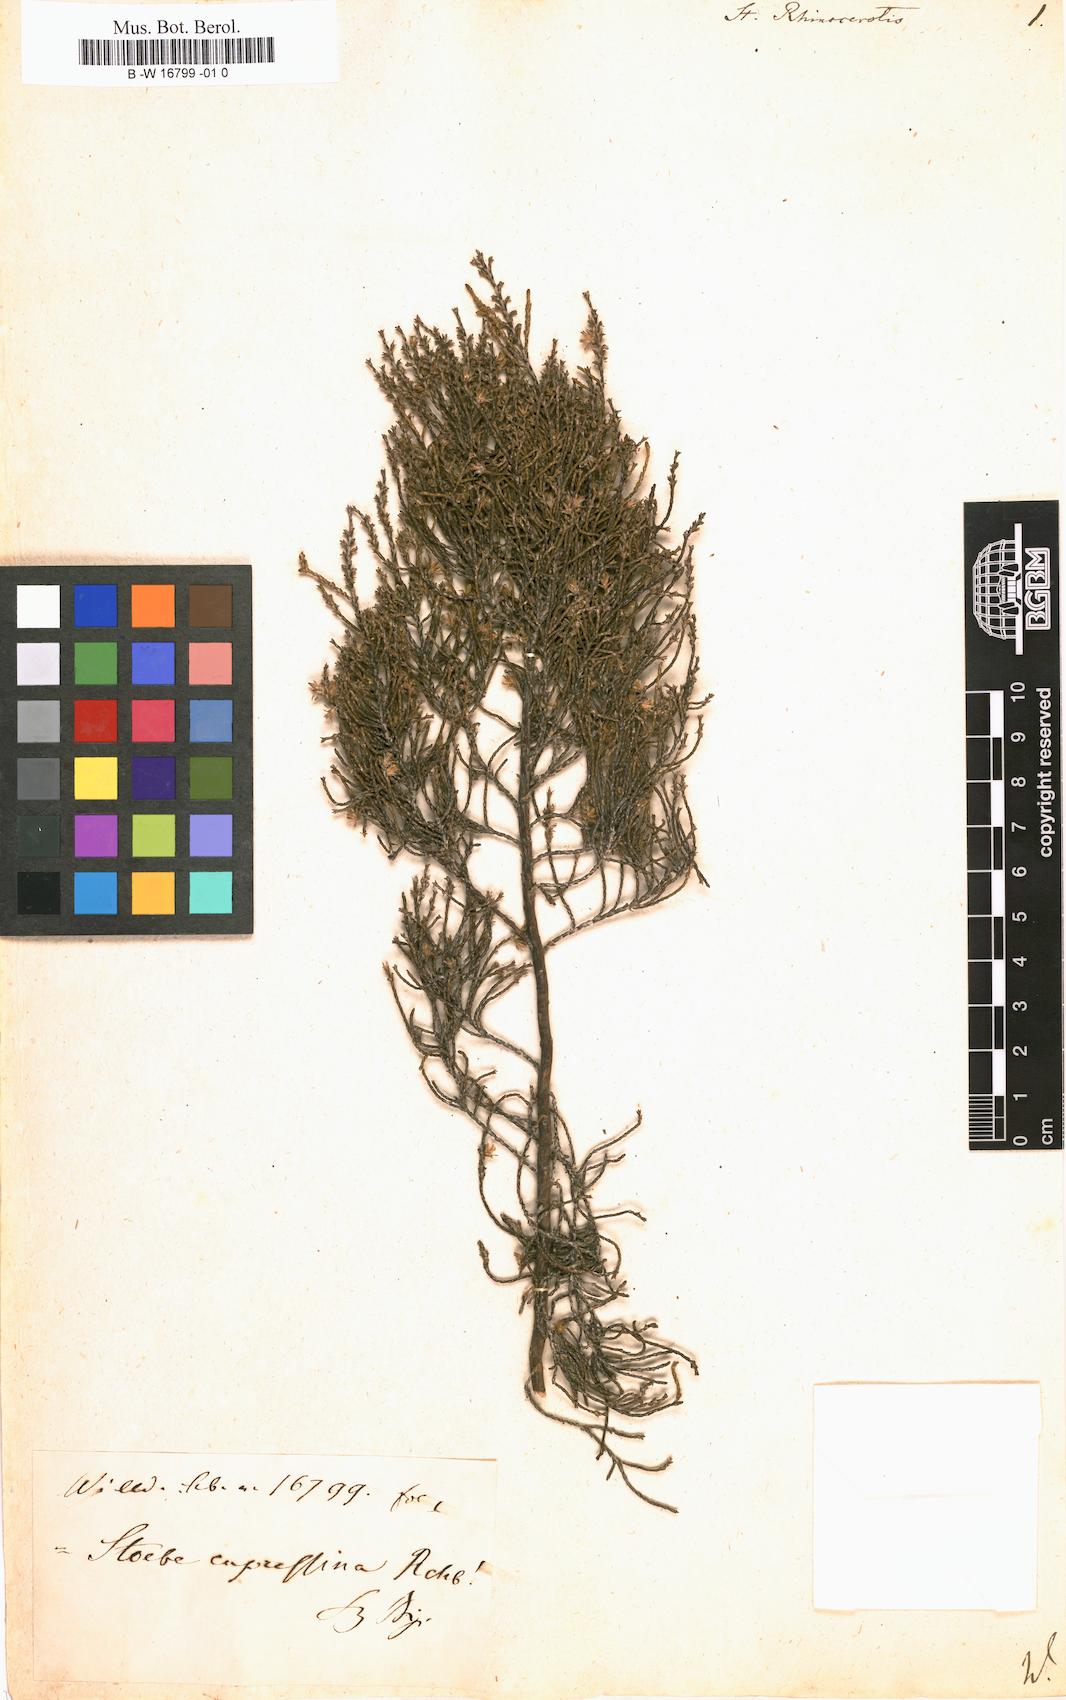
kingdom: Plantae
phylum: Tracheophyta
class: Magnoliopsida
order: Asterales
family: Asteraceae
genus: Dicerothamnus
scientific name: Dicerothamnus rhinocerotis
